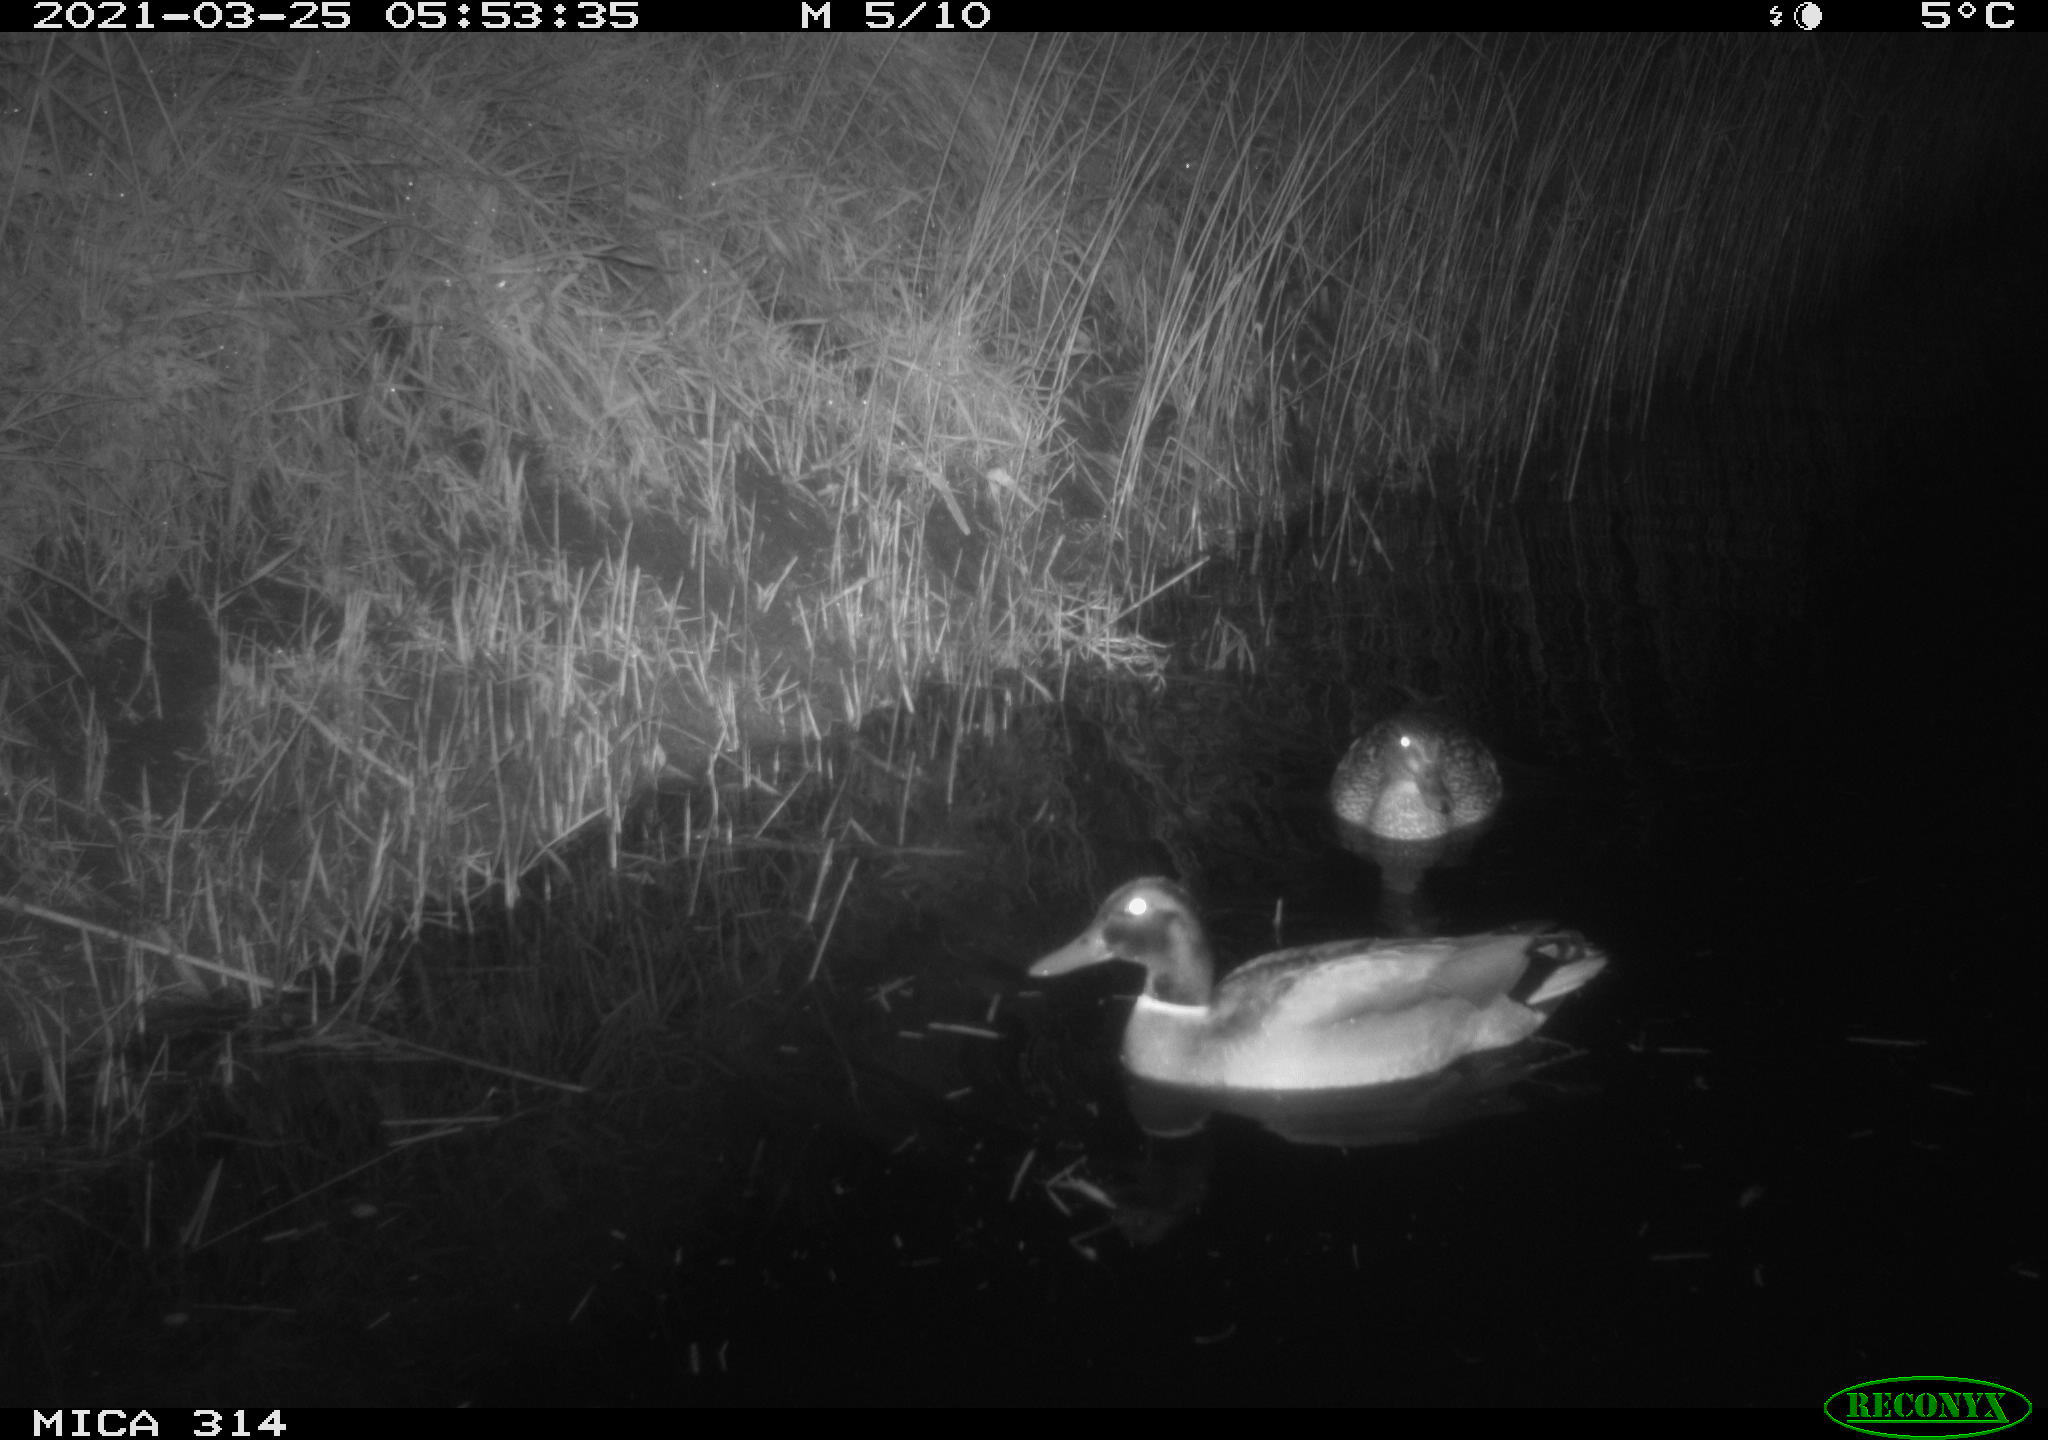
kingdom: Animalia
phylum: Chordata
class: Aves
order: Anseriformes
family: Anatidae
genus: Anas
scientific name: Anas platyrhynchos
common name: Mallard
